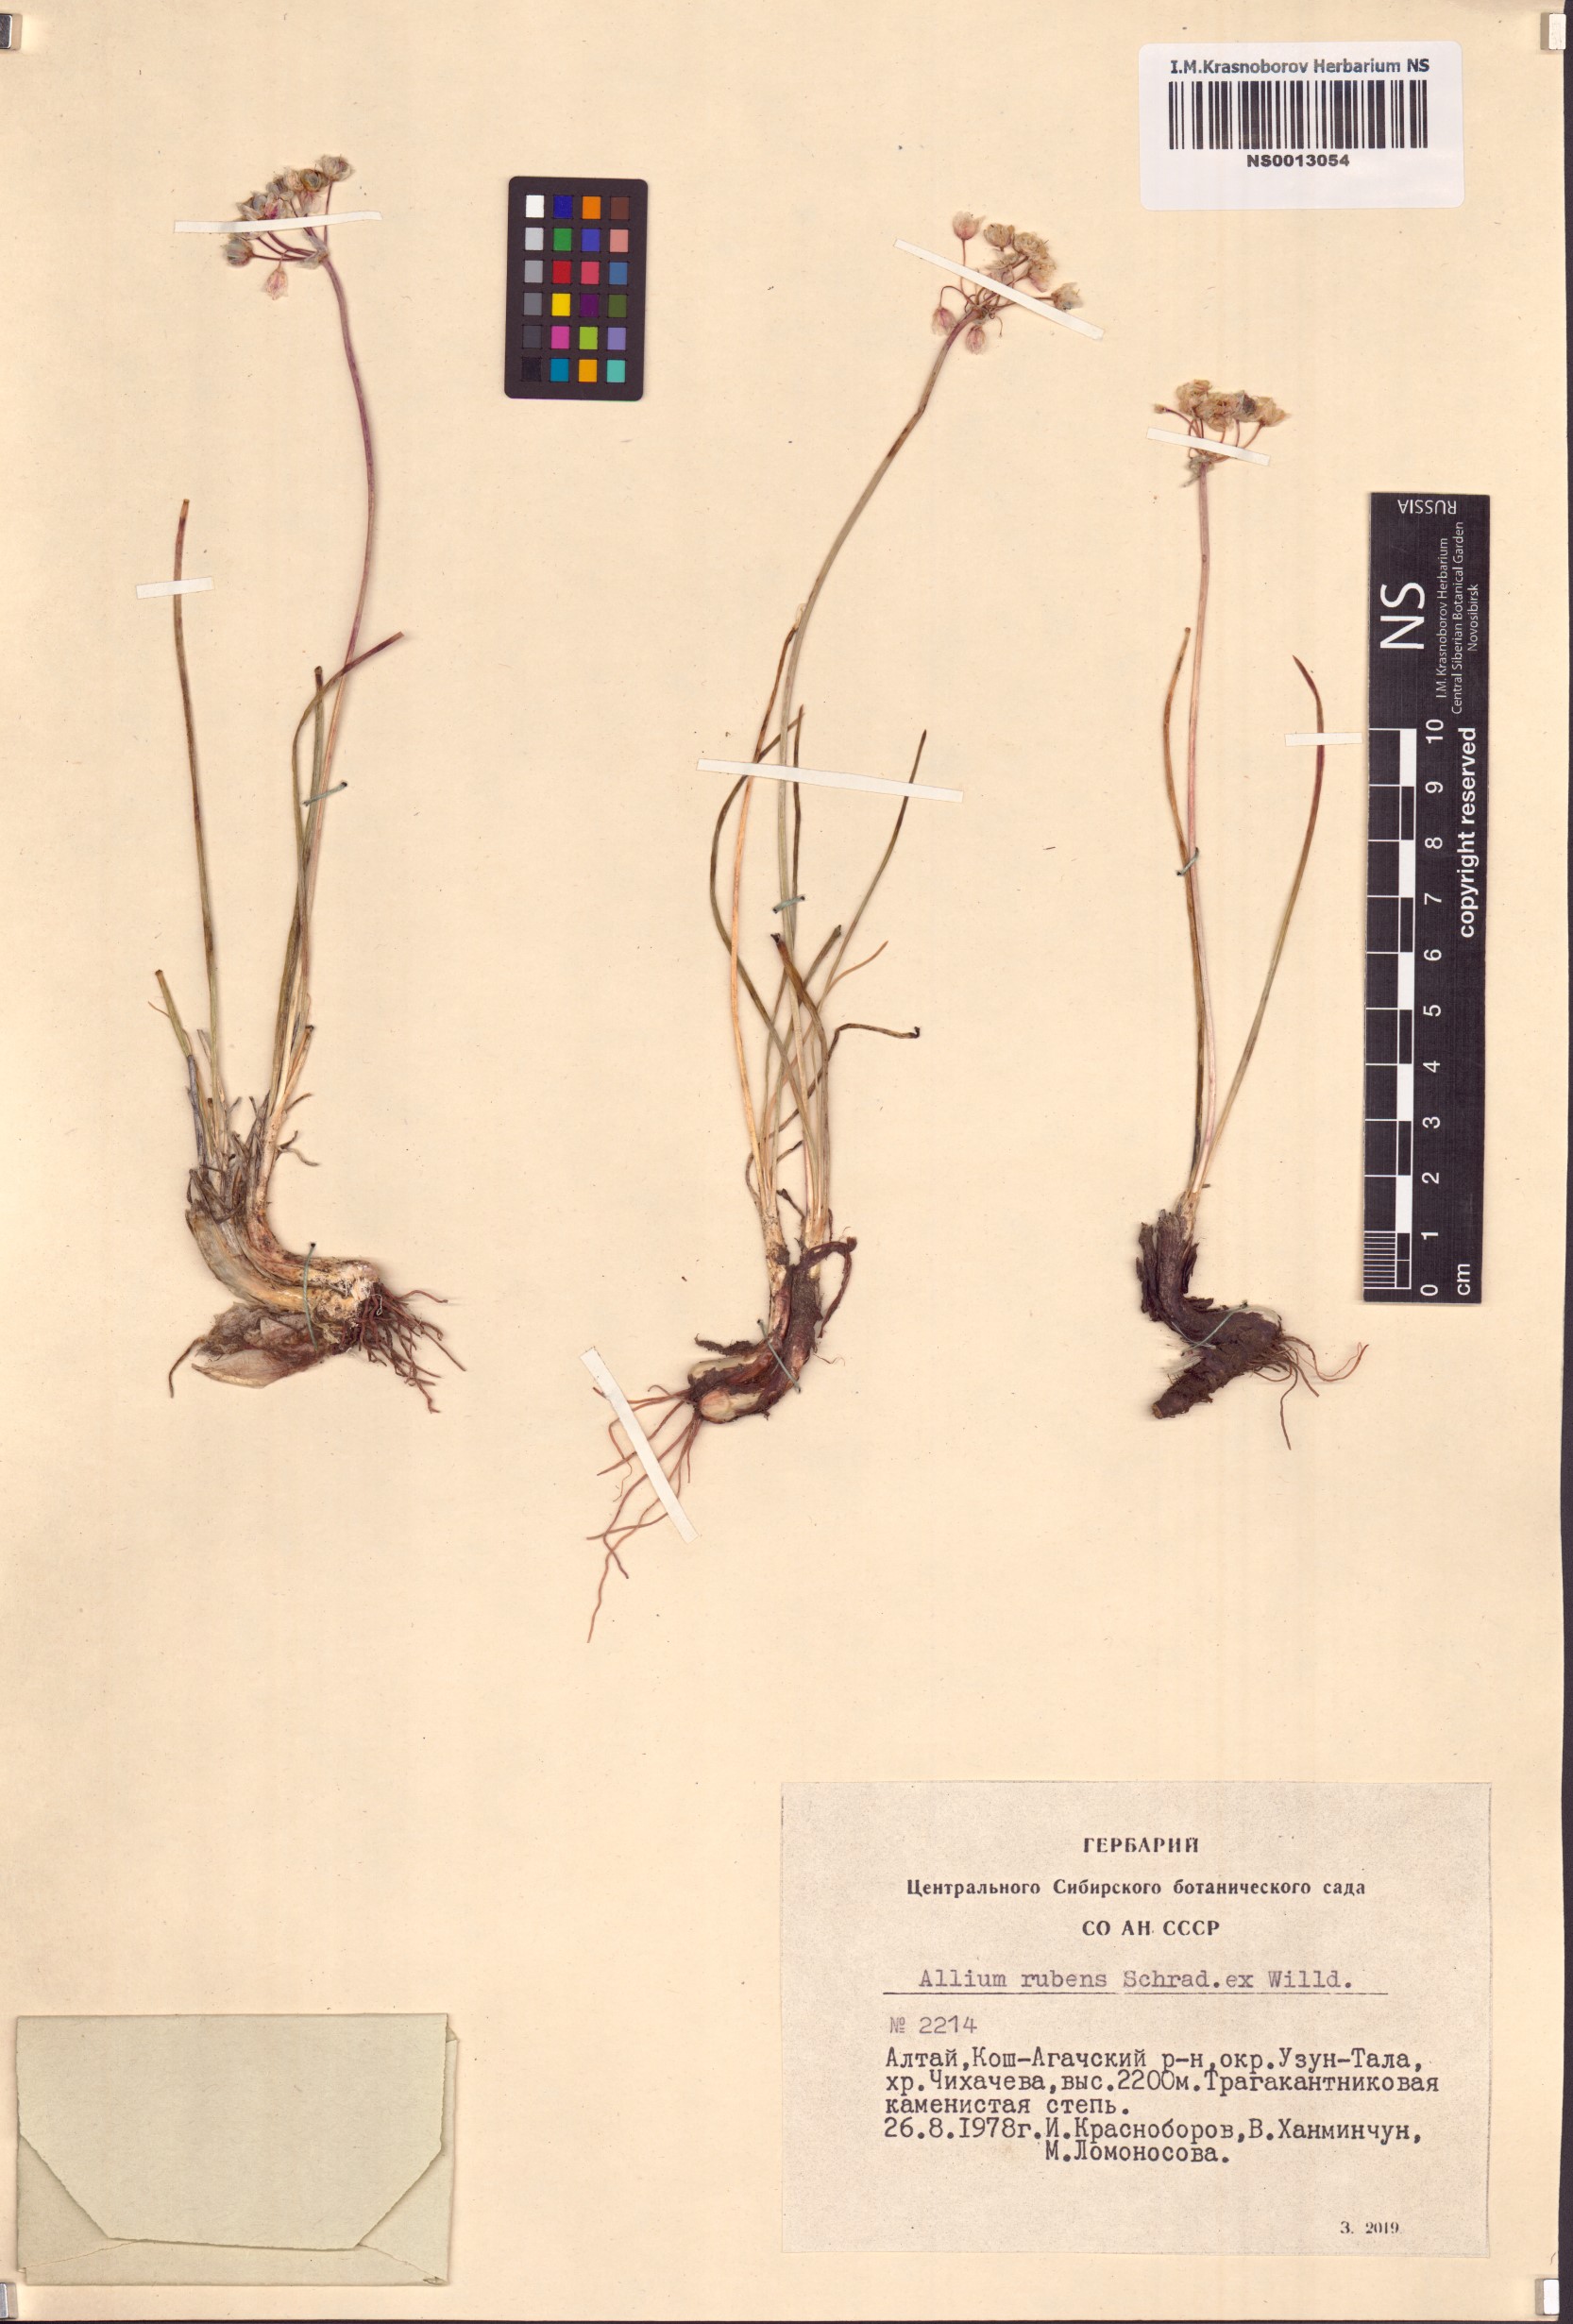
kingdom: Plantae
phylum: Tracheophyta
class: Liliopsida
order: Asparagales
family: Amaryllidaceae
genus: Allium
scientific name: Allium rubens
